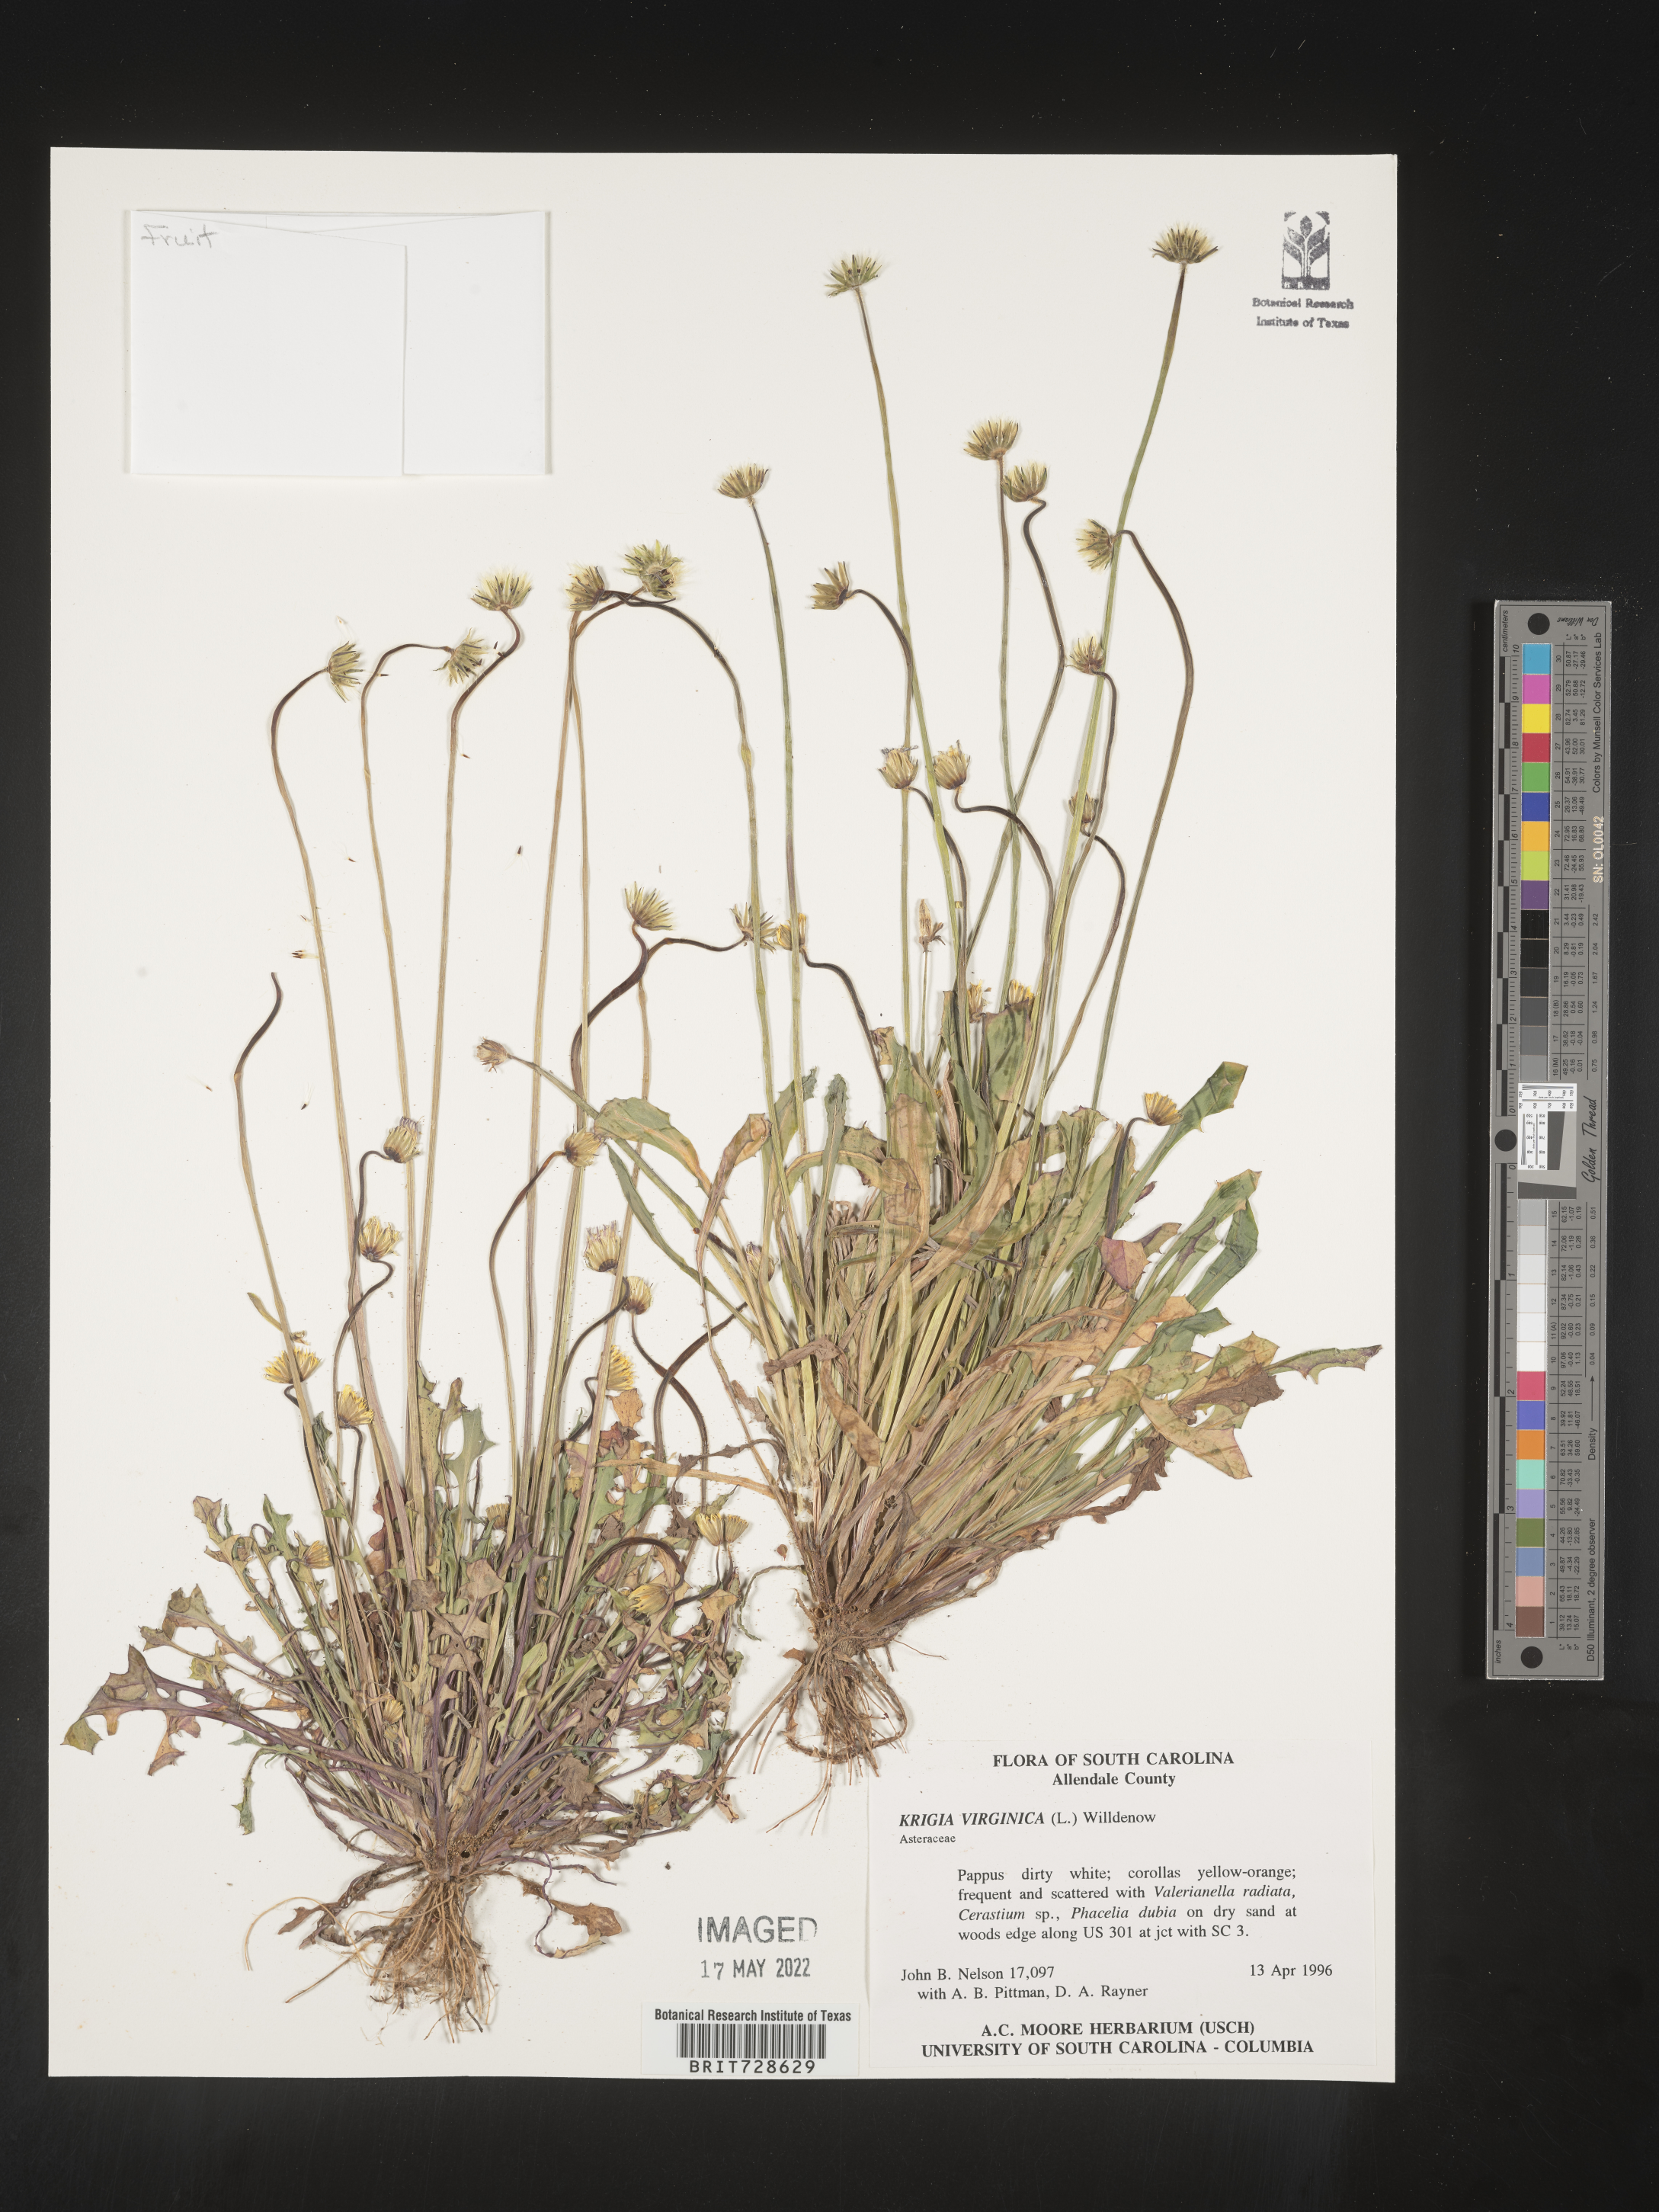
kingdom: Plantae
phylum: Tracheophyta
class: Magnoliopsida
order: Asterales
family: Asteraceae
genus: Krigia
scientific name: Krigia virginica
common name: Virginia dwarf-dandelion
